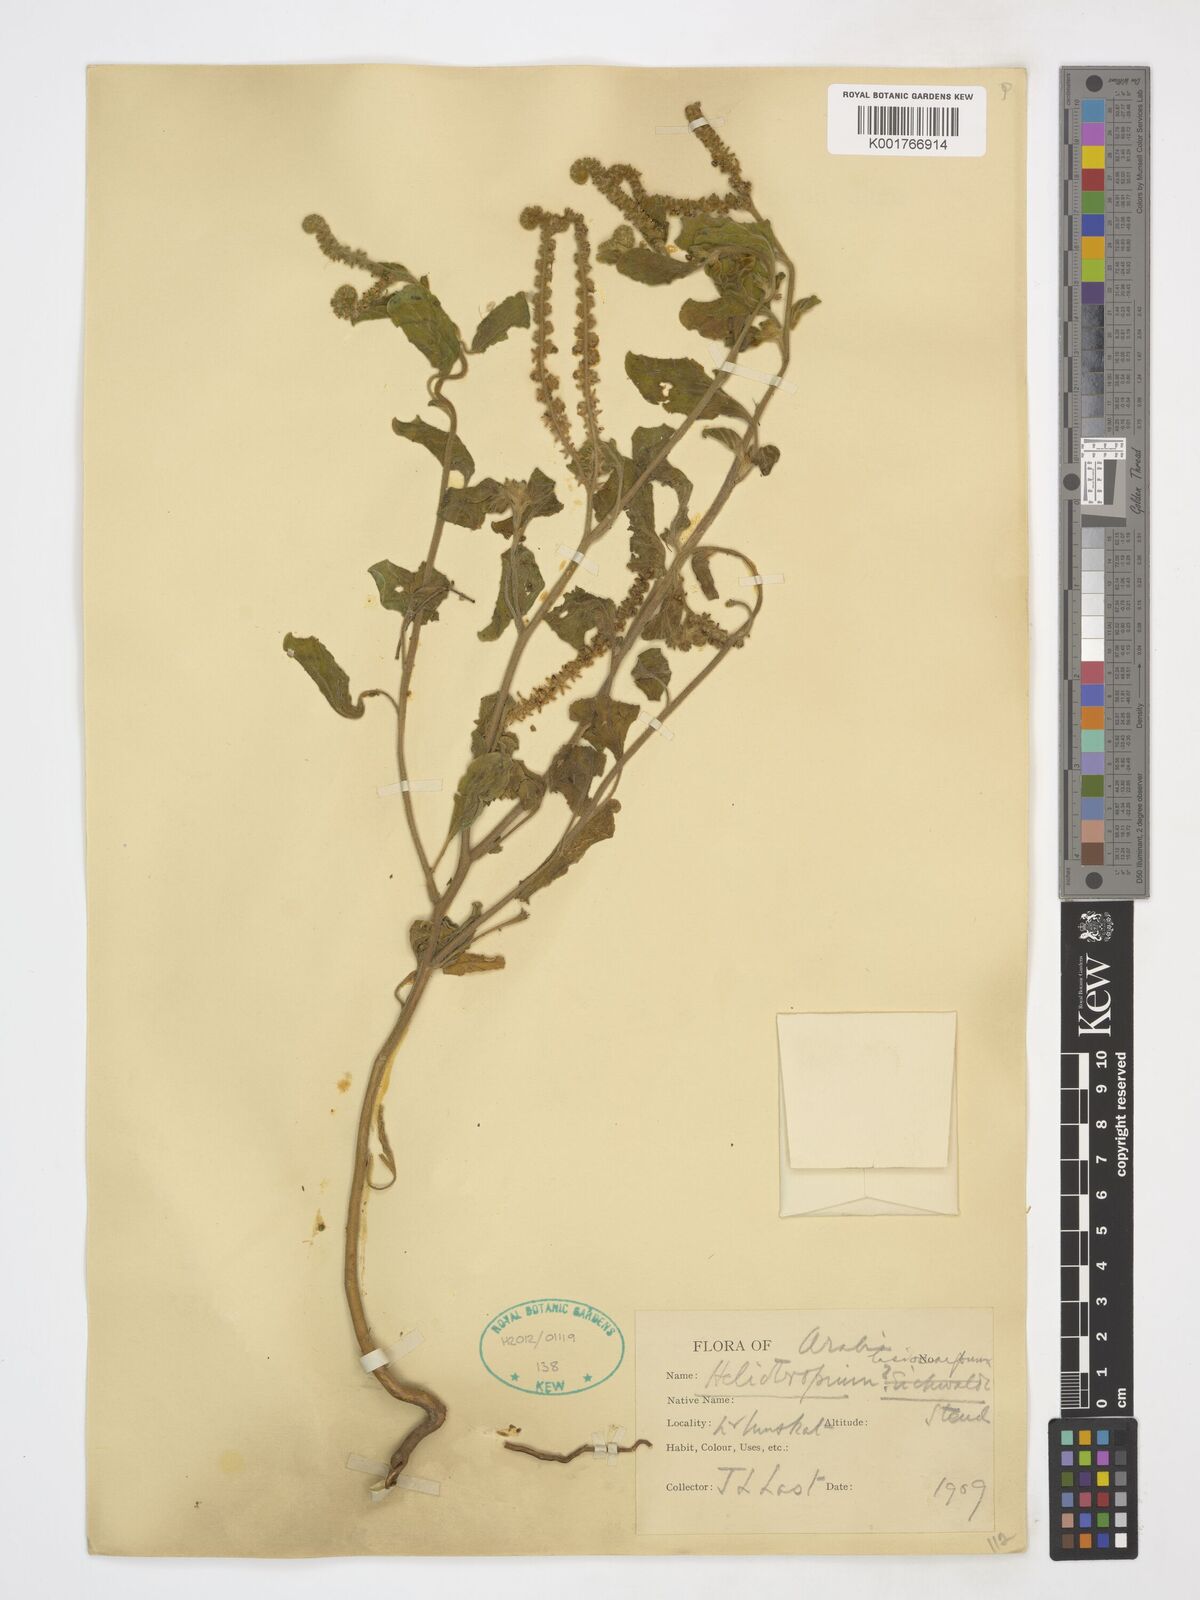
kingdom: Plantae
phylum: Tracheophyta
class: Magnoliopsida
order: Boraginales
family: Heliotropiaceae
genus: Heliotropium
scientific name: Heliotropium lasiocarpum
